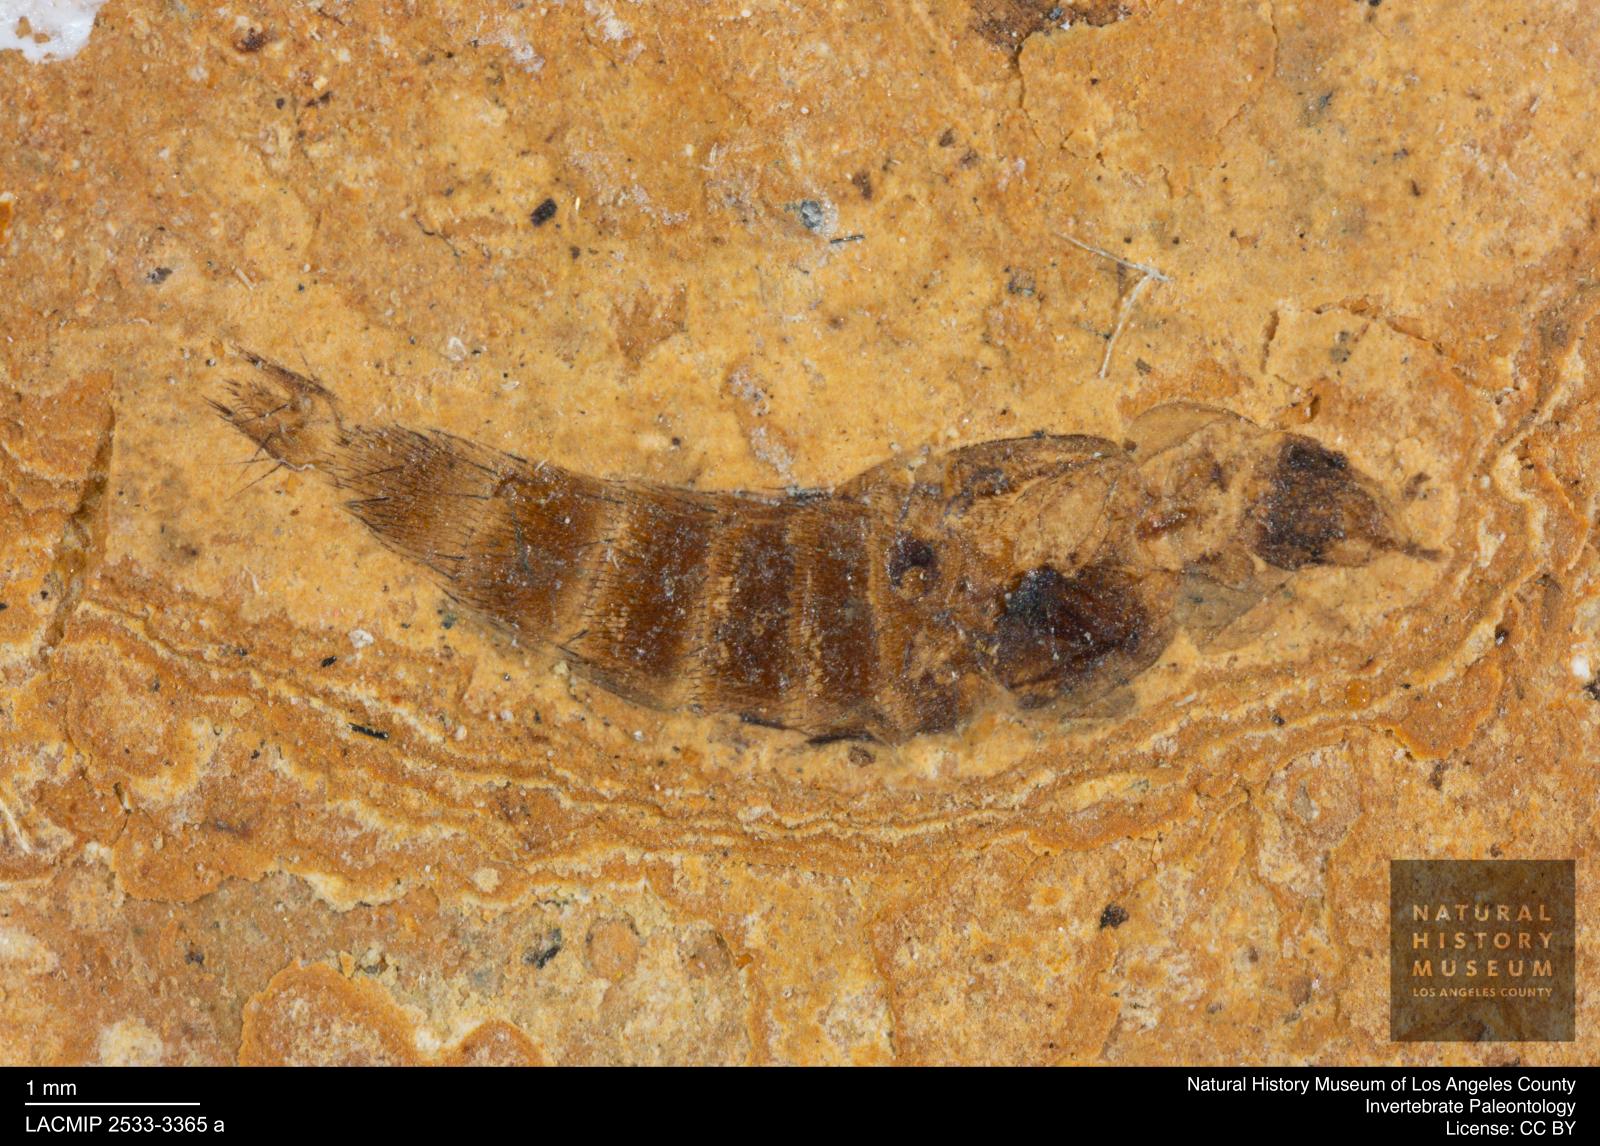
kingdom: Animalia
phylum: Arthropoda
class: Insecta
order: Coleoptera
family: Staphylinidae
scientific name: Staphylinidae
